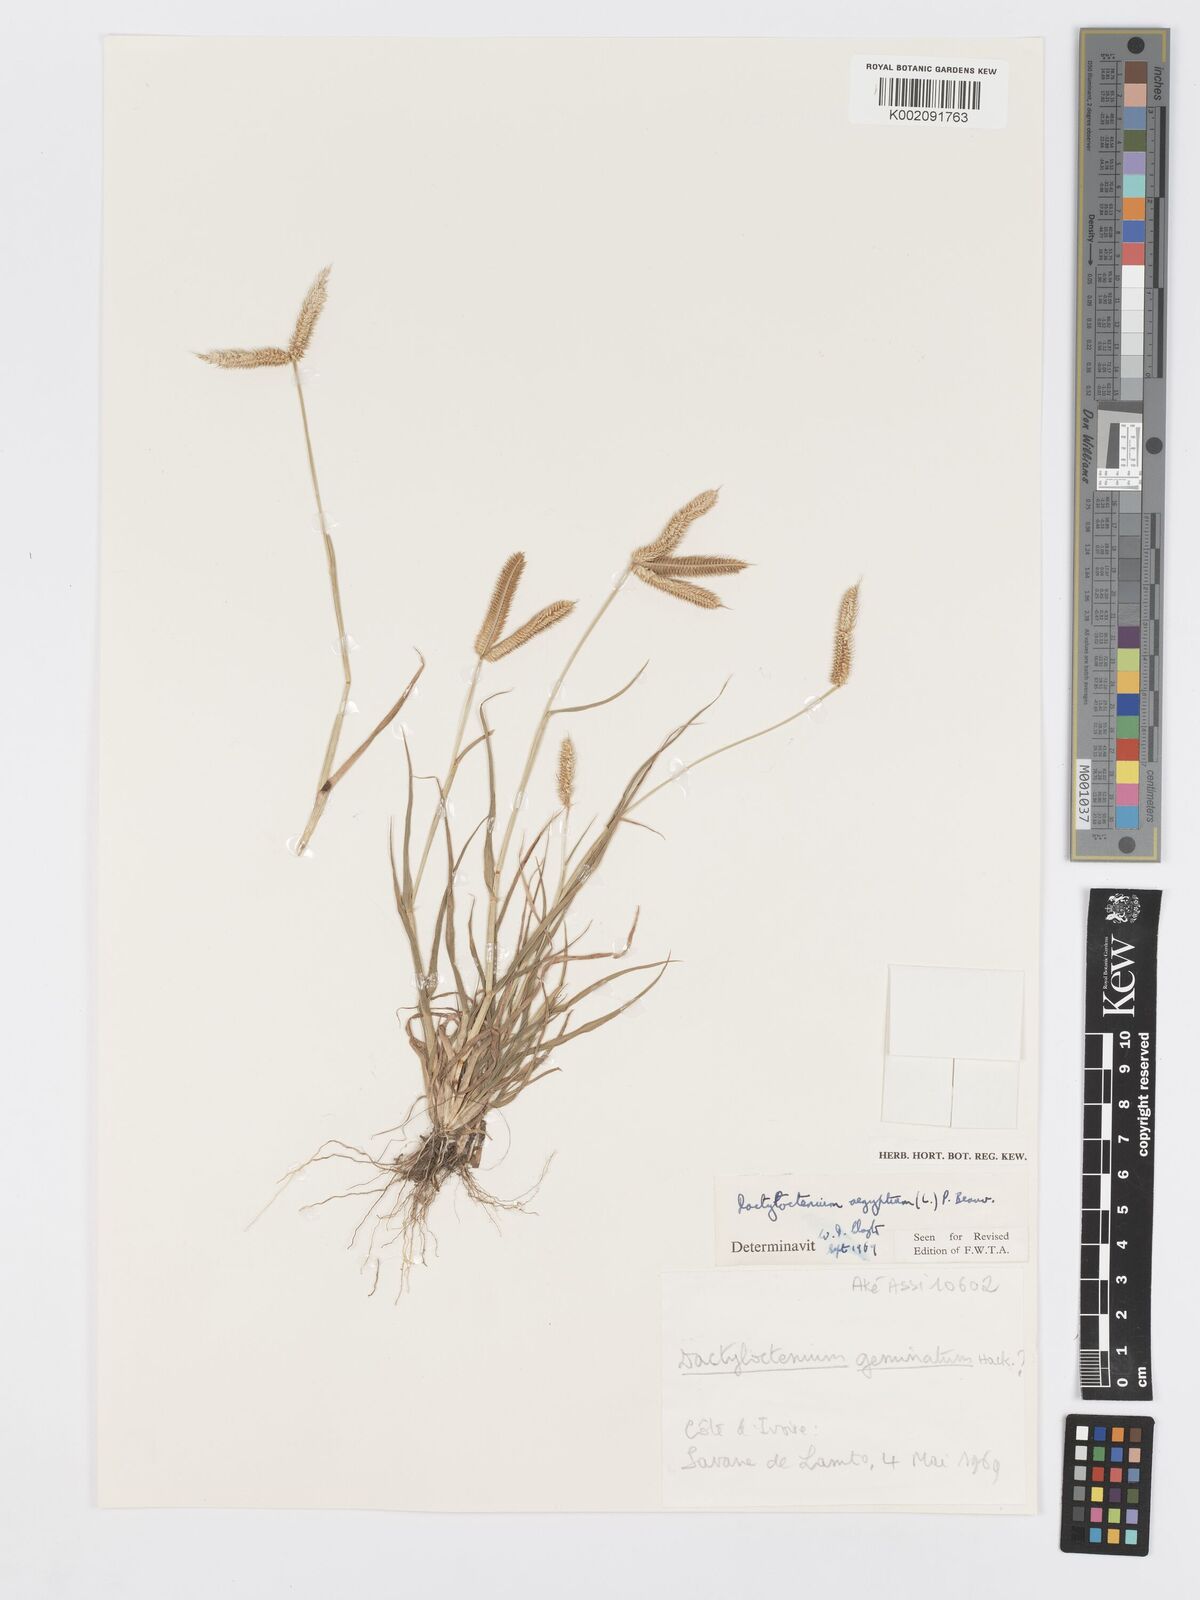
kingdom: Plantae
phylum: Tracheophyta
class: Liliopsida
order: Poales
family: Poaceae
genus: Dactyloctenium
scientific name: Dactyloctenium aegyptium
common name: Egyptian grass
